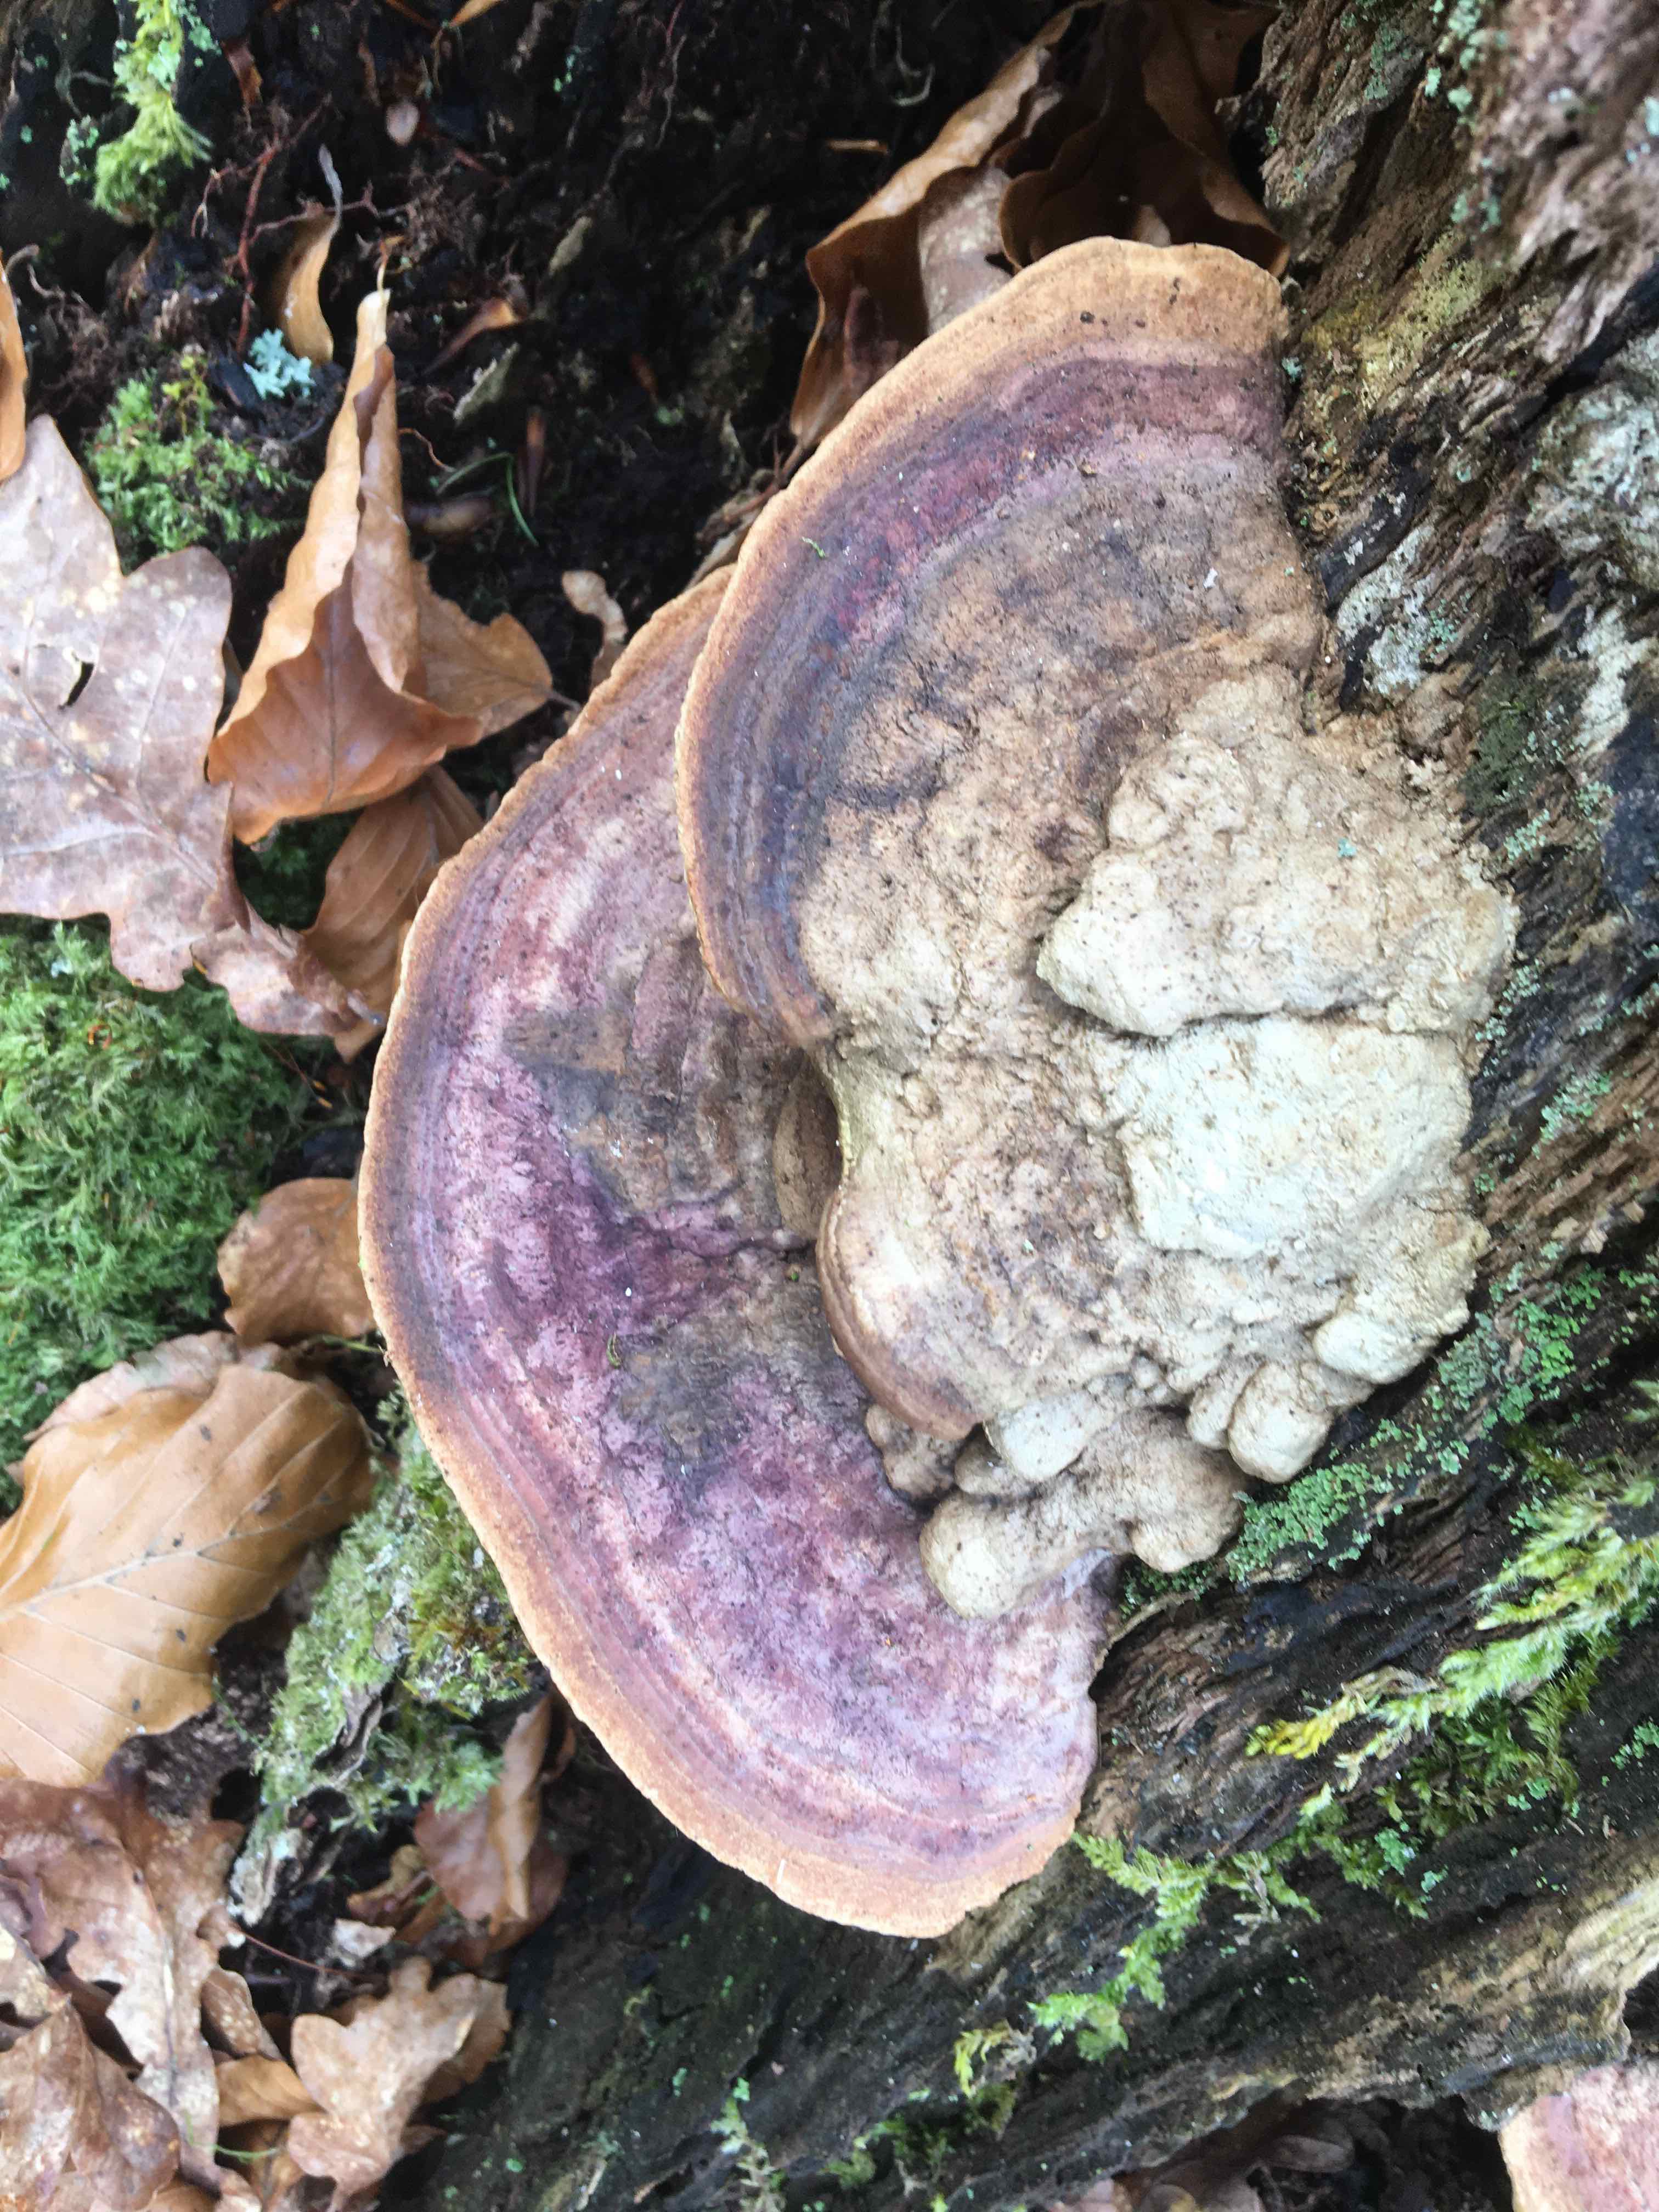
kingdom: Fungi
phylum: Basidiomycota
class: Agaricomycetes
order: Polyporales
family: Fomitopsidaceae
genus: Daedalea
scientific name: Daedalea quercina
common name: ege-labyrintsvamp
